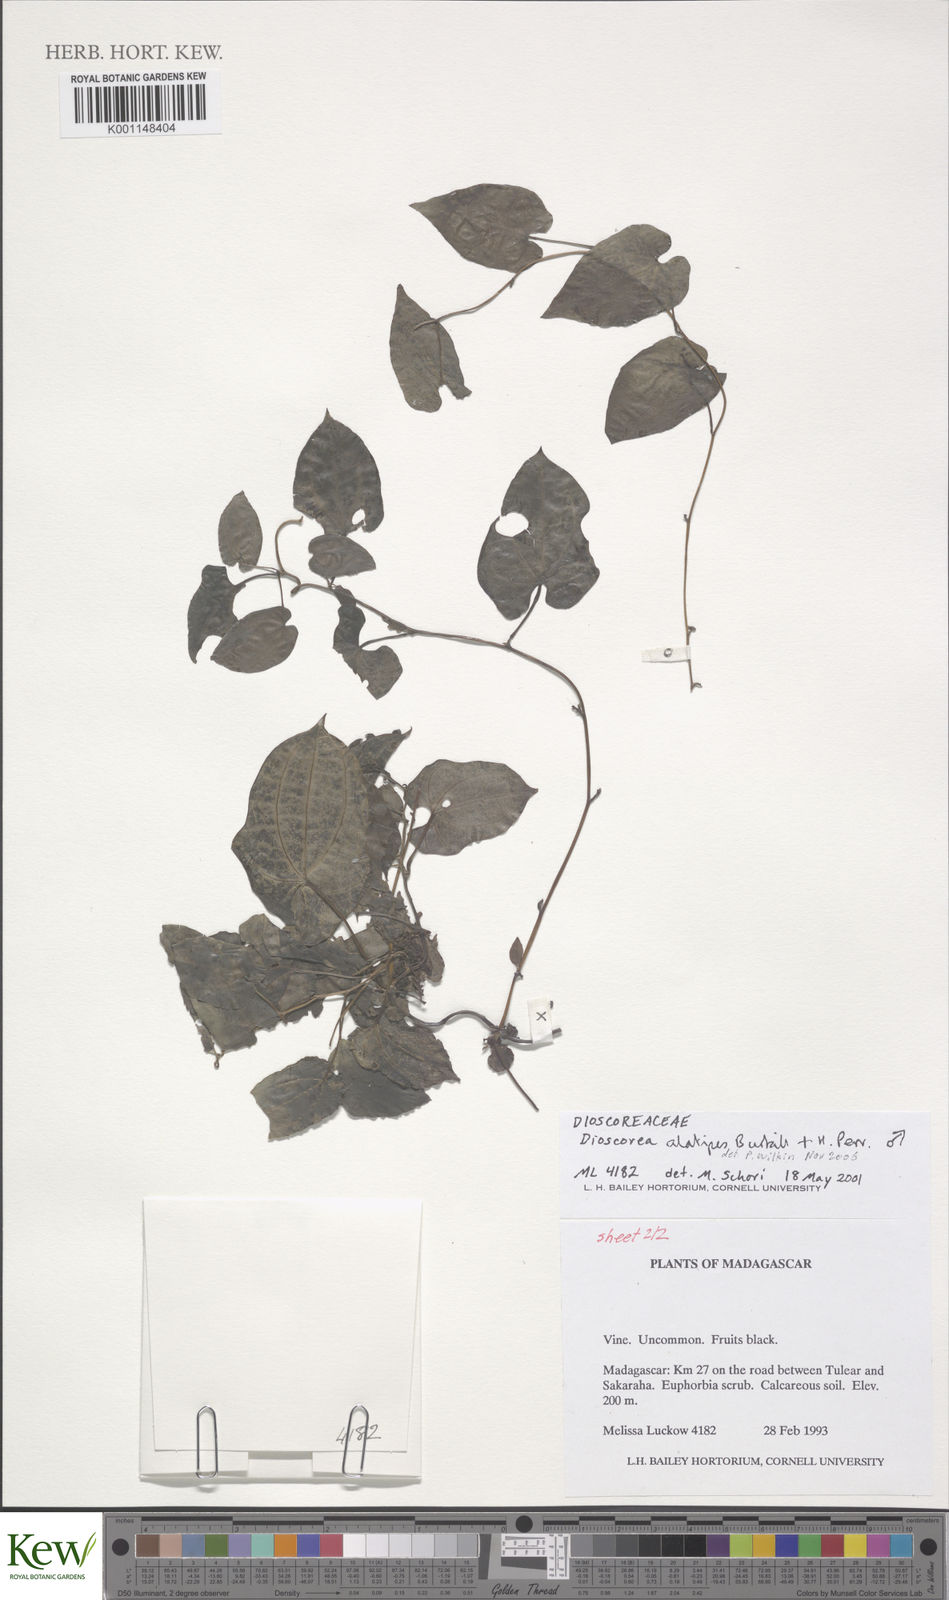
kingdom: Plantae
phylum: Tracheophyta
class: Liliopsida
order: Dioscoreales
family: Dioscoreaceae
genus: Dioscorea
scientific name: Dioscorea alatipes
